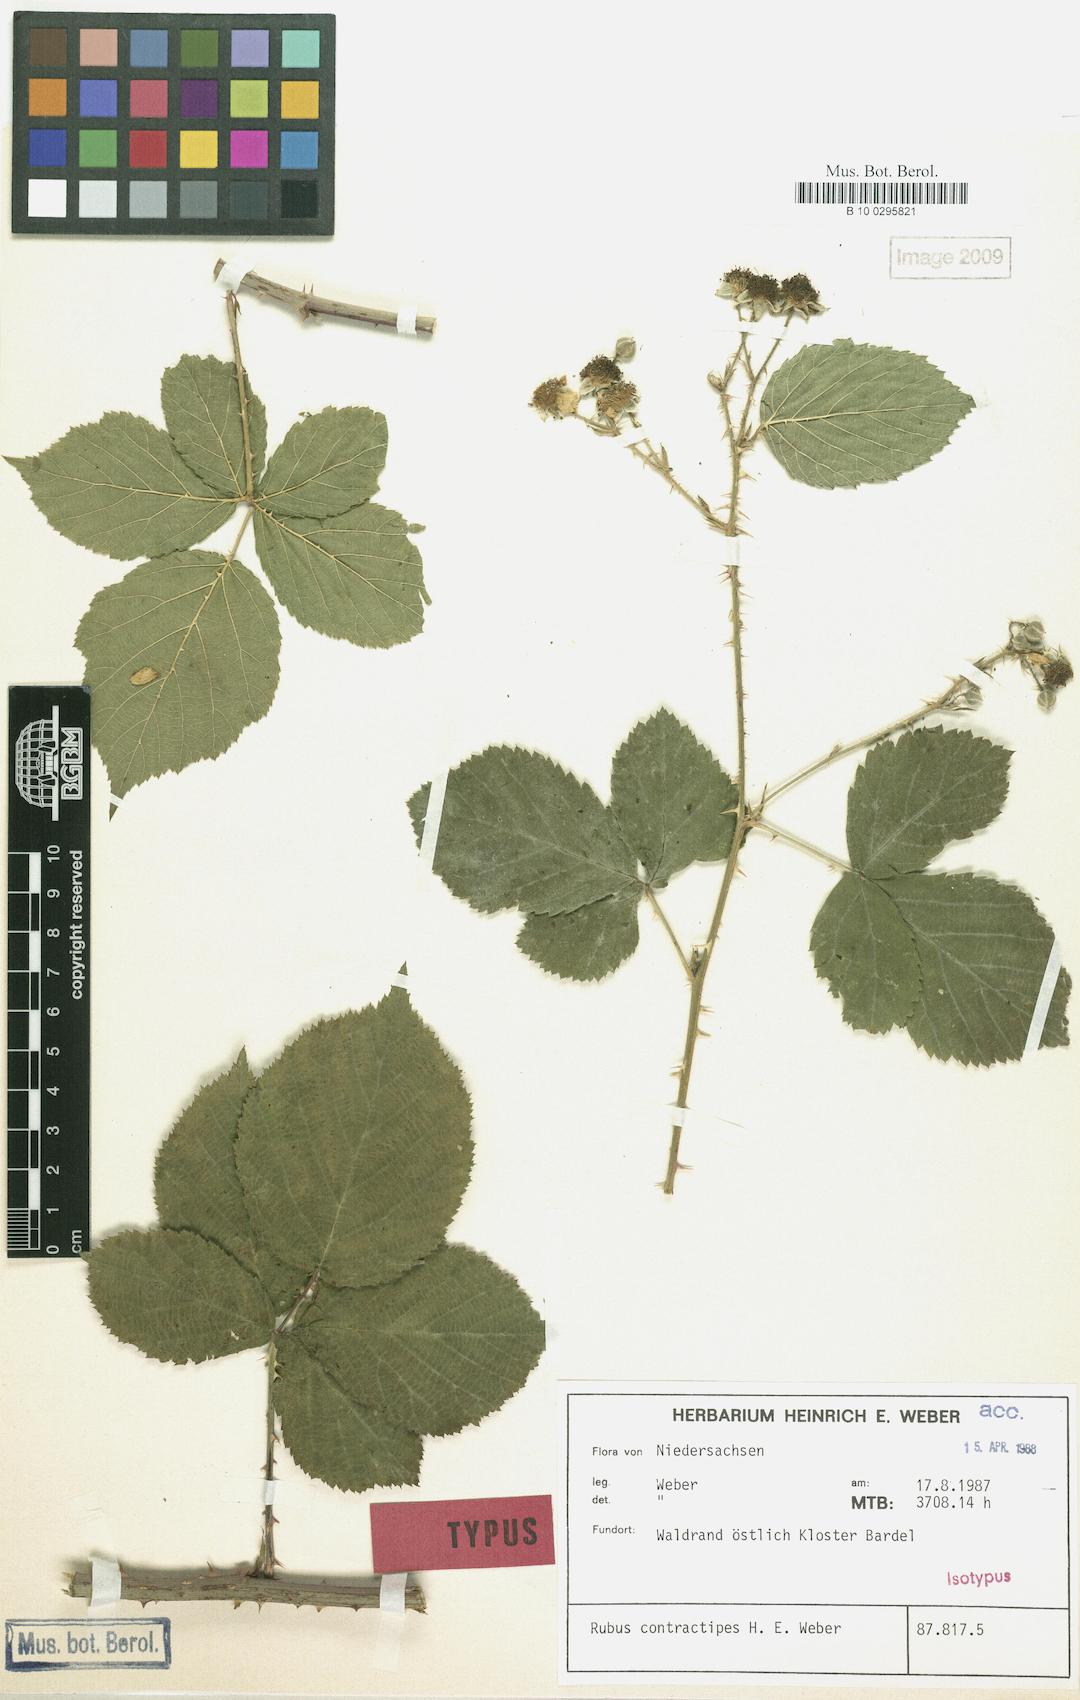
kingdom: Plantae
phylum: Tracheophyta
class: Magnoliopsida
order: Rosales
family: Rosaceae
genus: Rubus
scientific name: Rubus contractipes
